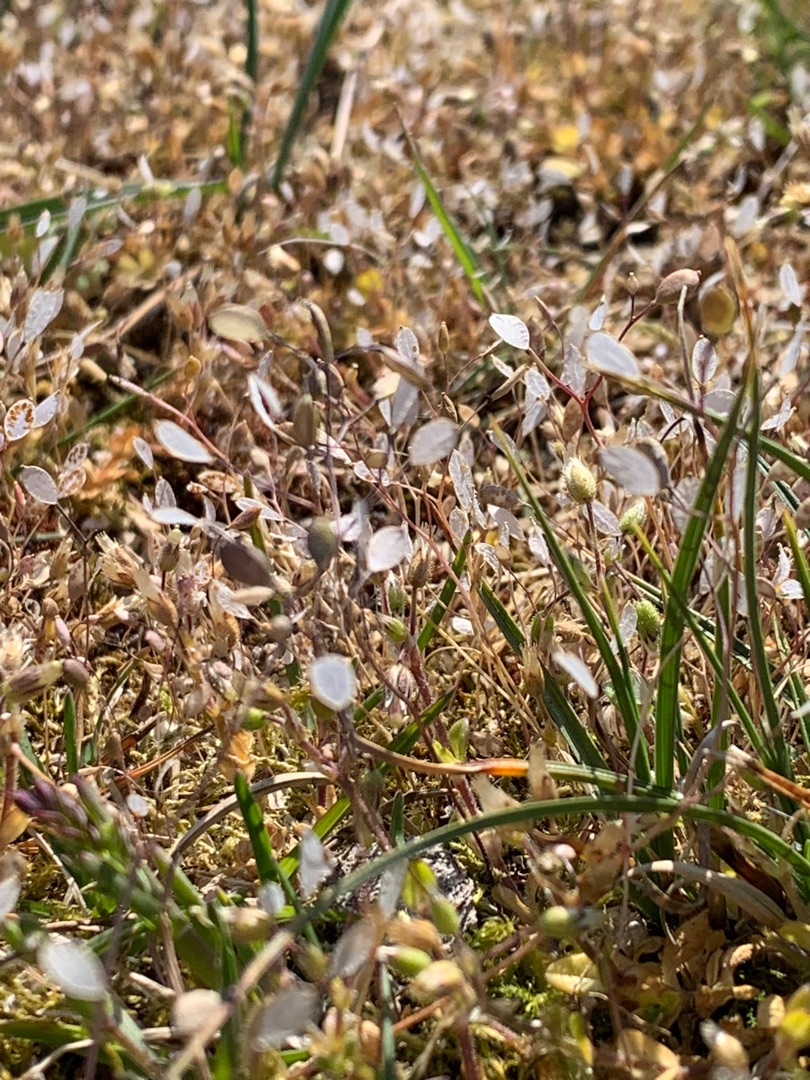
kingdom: Plantae
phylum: Tracheophyta
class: Magnoliopsida
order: Brassicales
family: Brassicaceae
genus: Draba
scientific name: Draba verna
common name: Vår-gæslingeblomst
